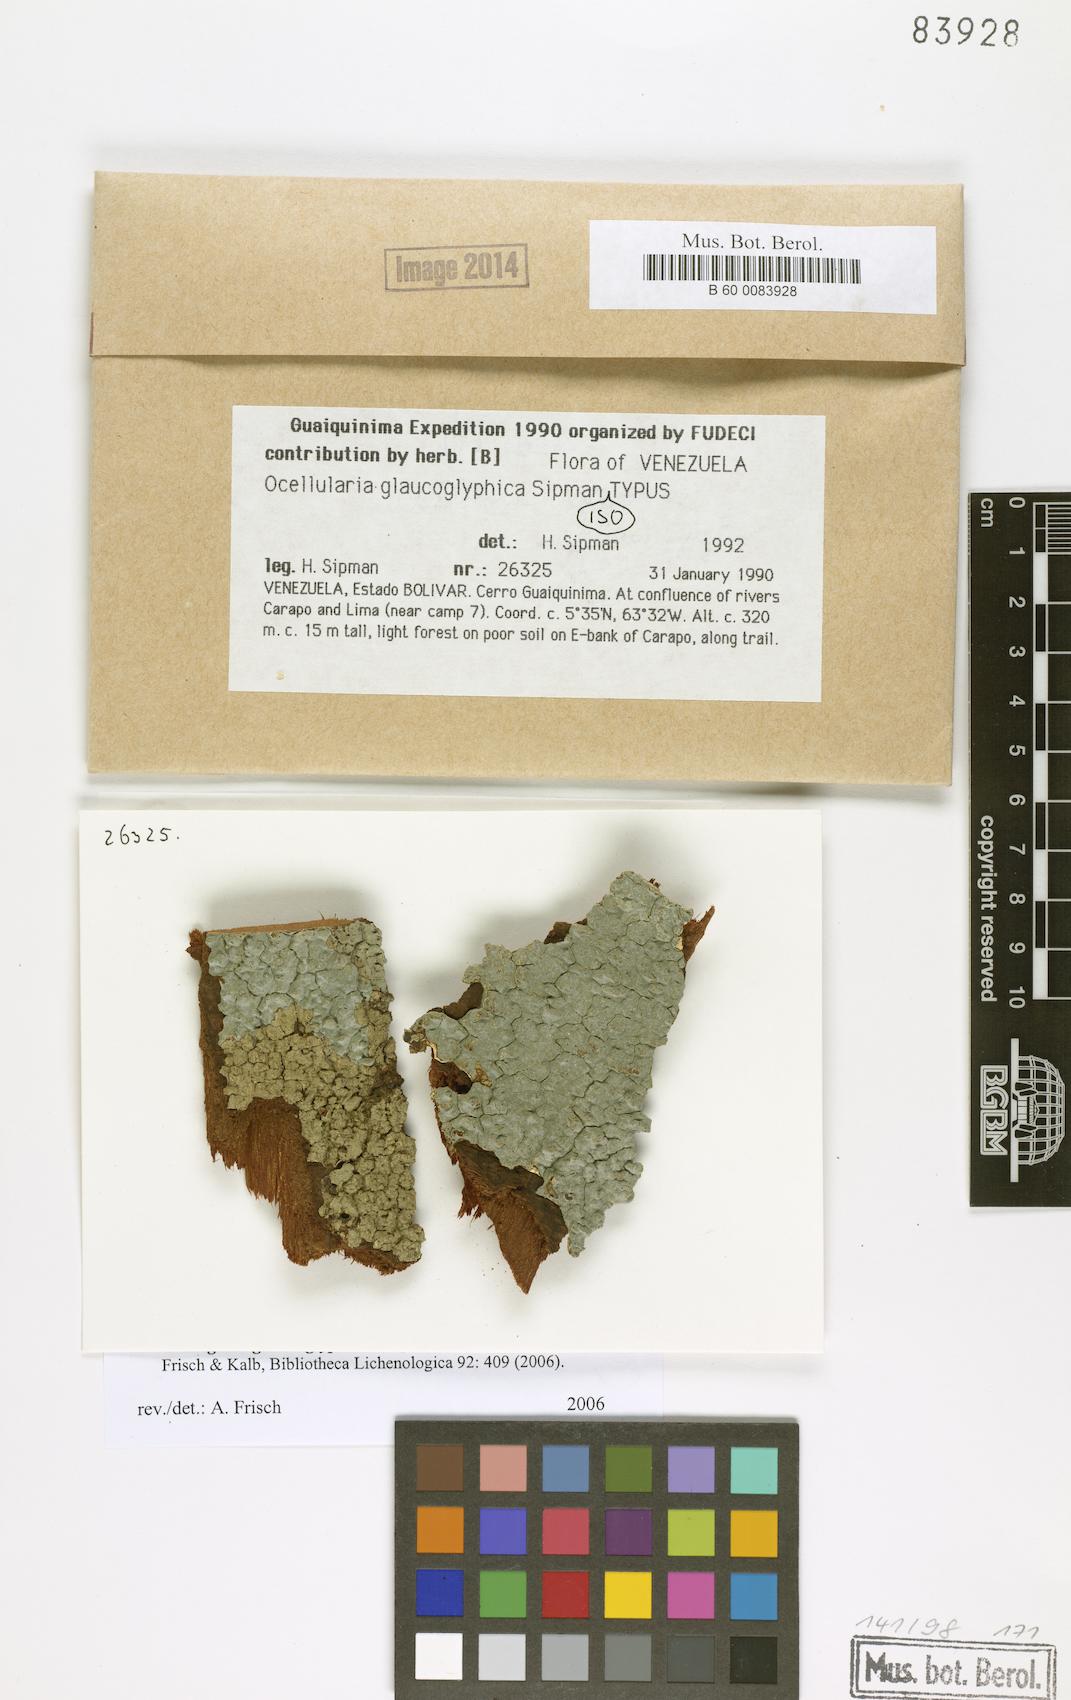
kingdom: Fungi
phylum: Ascomycota
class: Lecanoromycetes
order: Ostropales
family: Graphidaceae
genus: Redingeria
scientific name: Redingeria glaucoglyphica
